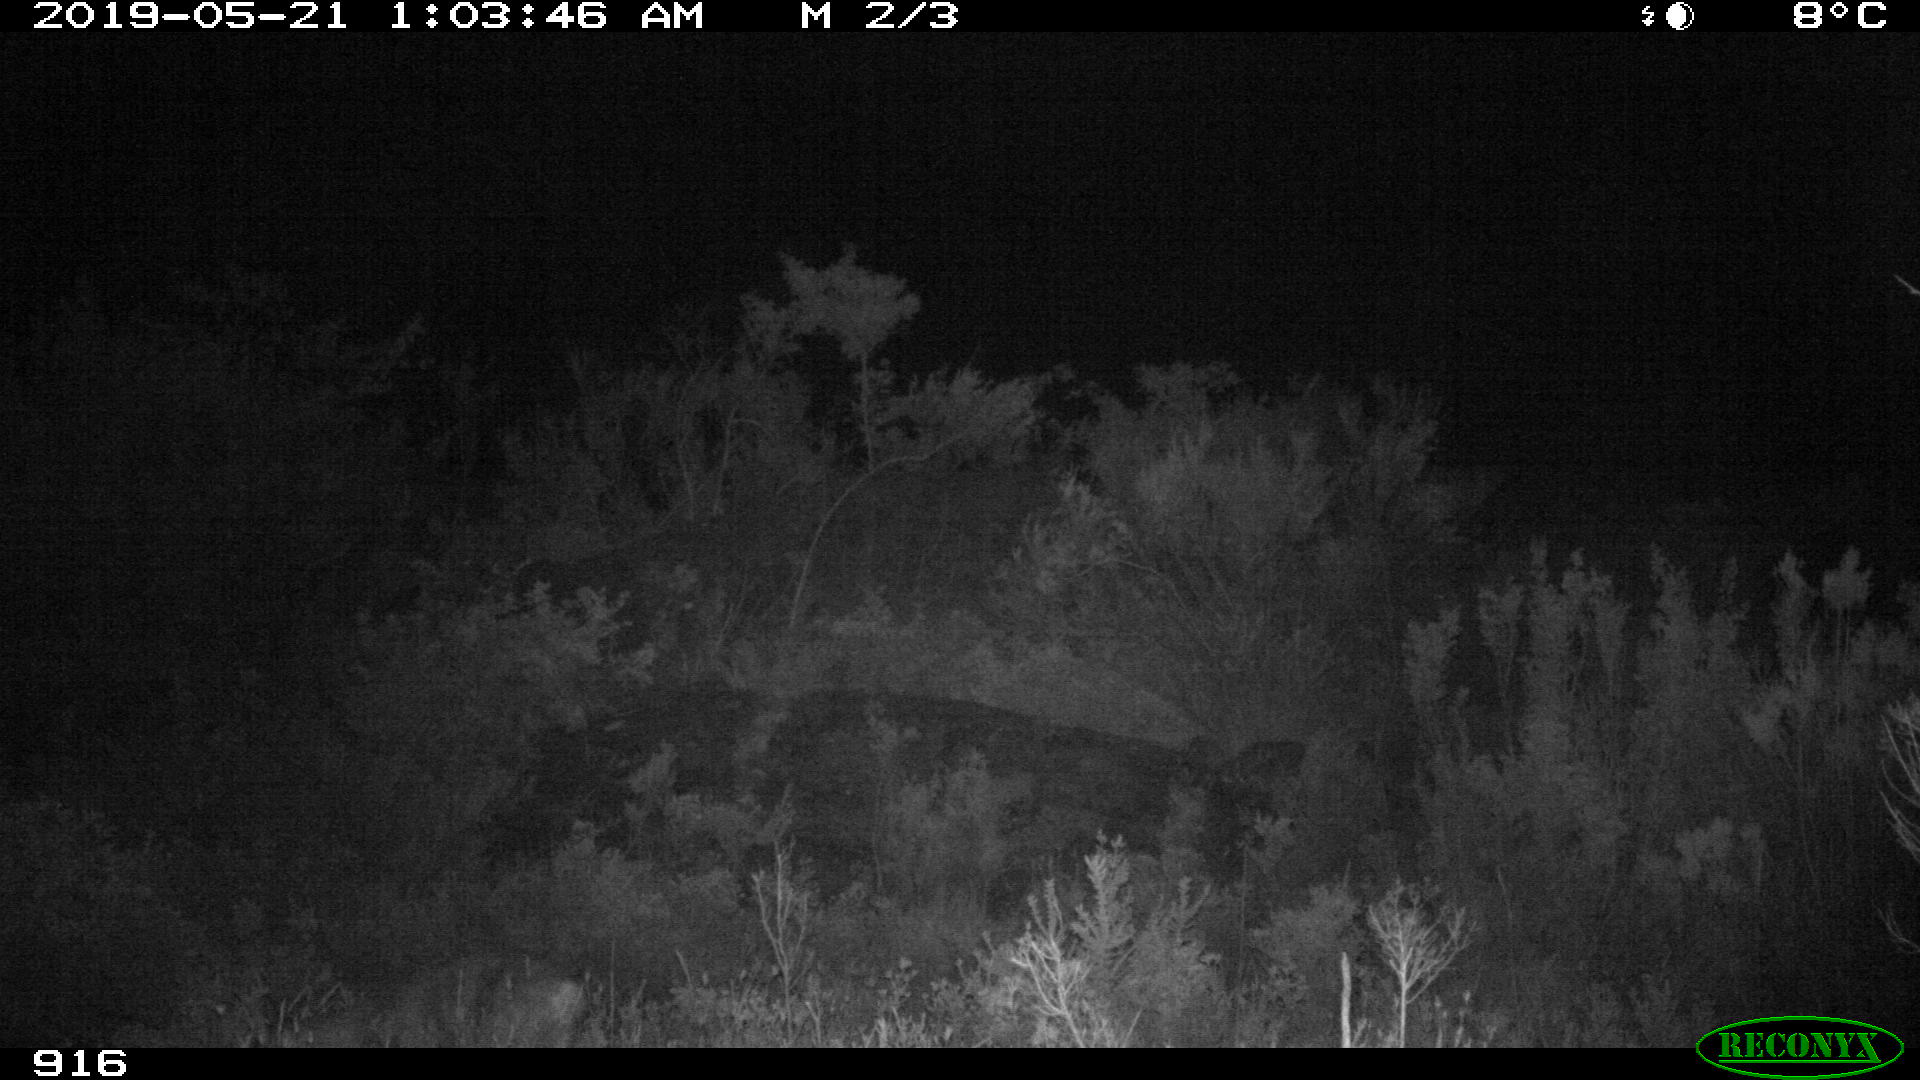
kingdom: Animalia
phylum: Chordata
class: Mammalia
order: Artiodactyla
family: Cervidae
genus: Capreolus
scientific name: Capreolus capreolus
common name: Western roe deer
